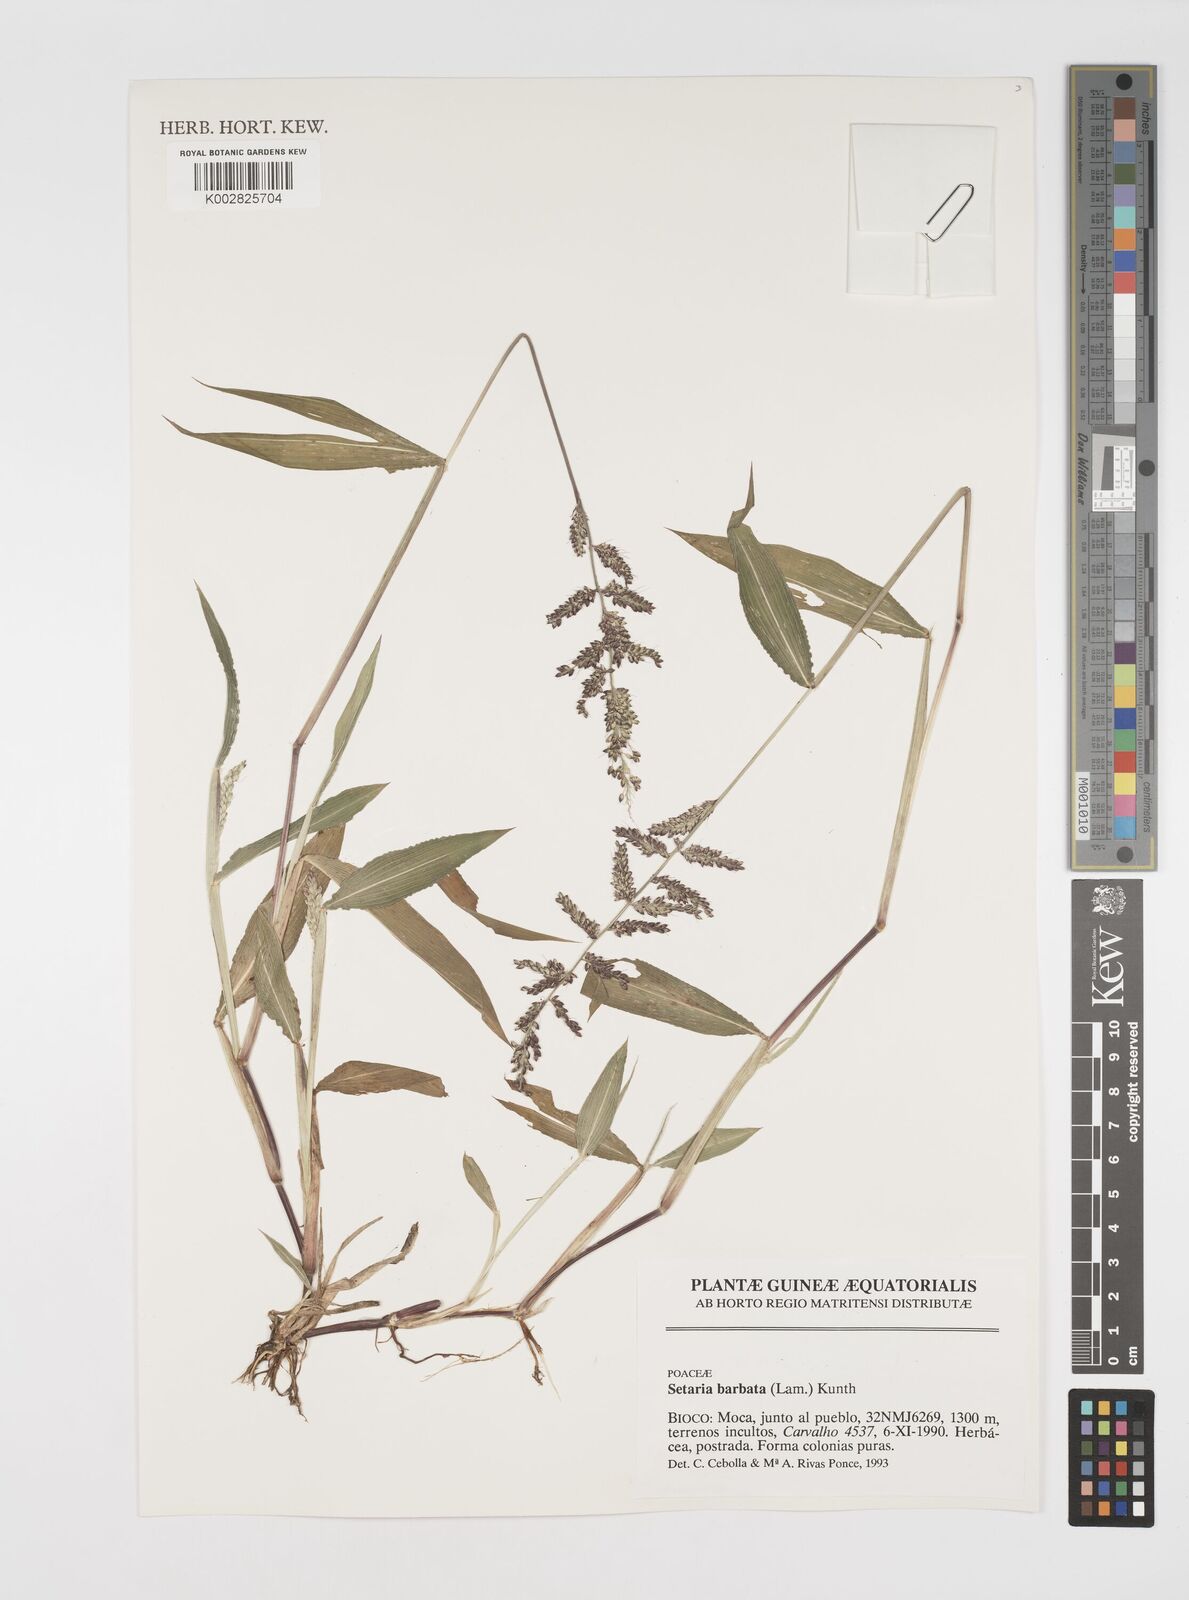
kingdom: Plantae
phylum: Tracheophyta
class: Liliopsida
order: Poales
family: Poaceae
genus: Setaria
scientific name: Setaria barbata
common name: East indian bristlegrass
